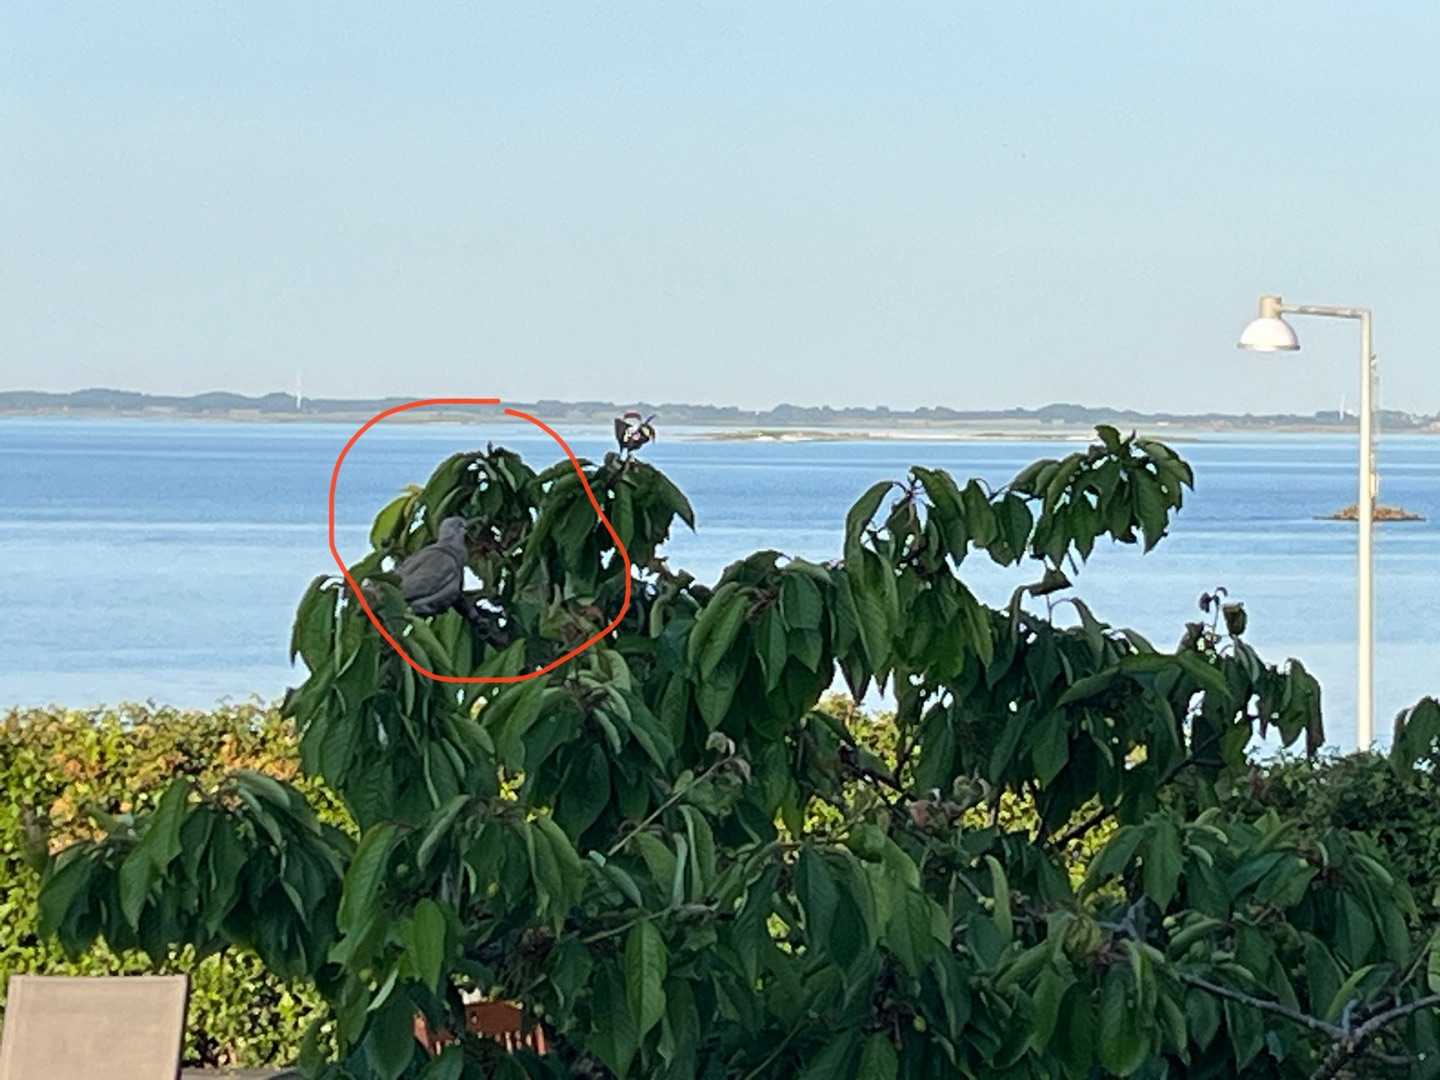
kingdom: Animalia
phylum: Chordata
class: Aves
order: Columbiformes
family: Columbidae
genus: Streptopelia
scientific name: Streptopelia decaocto
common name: Tyrkerdue
